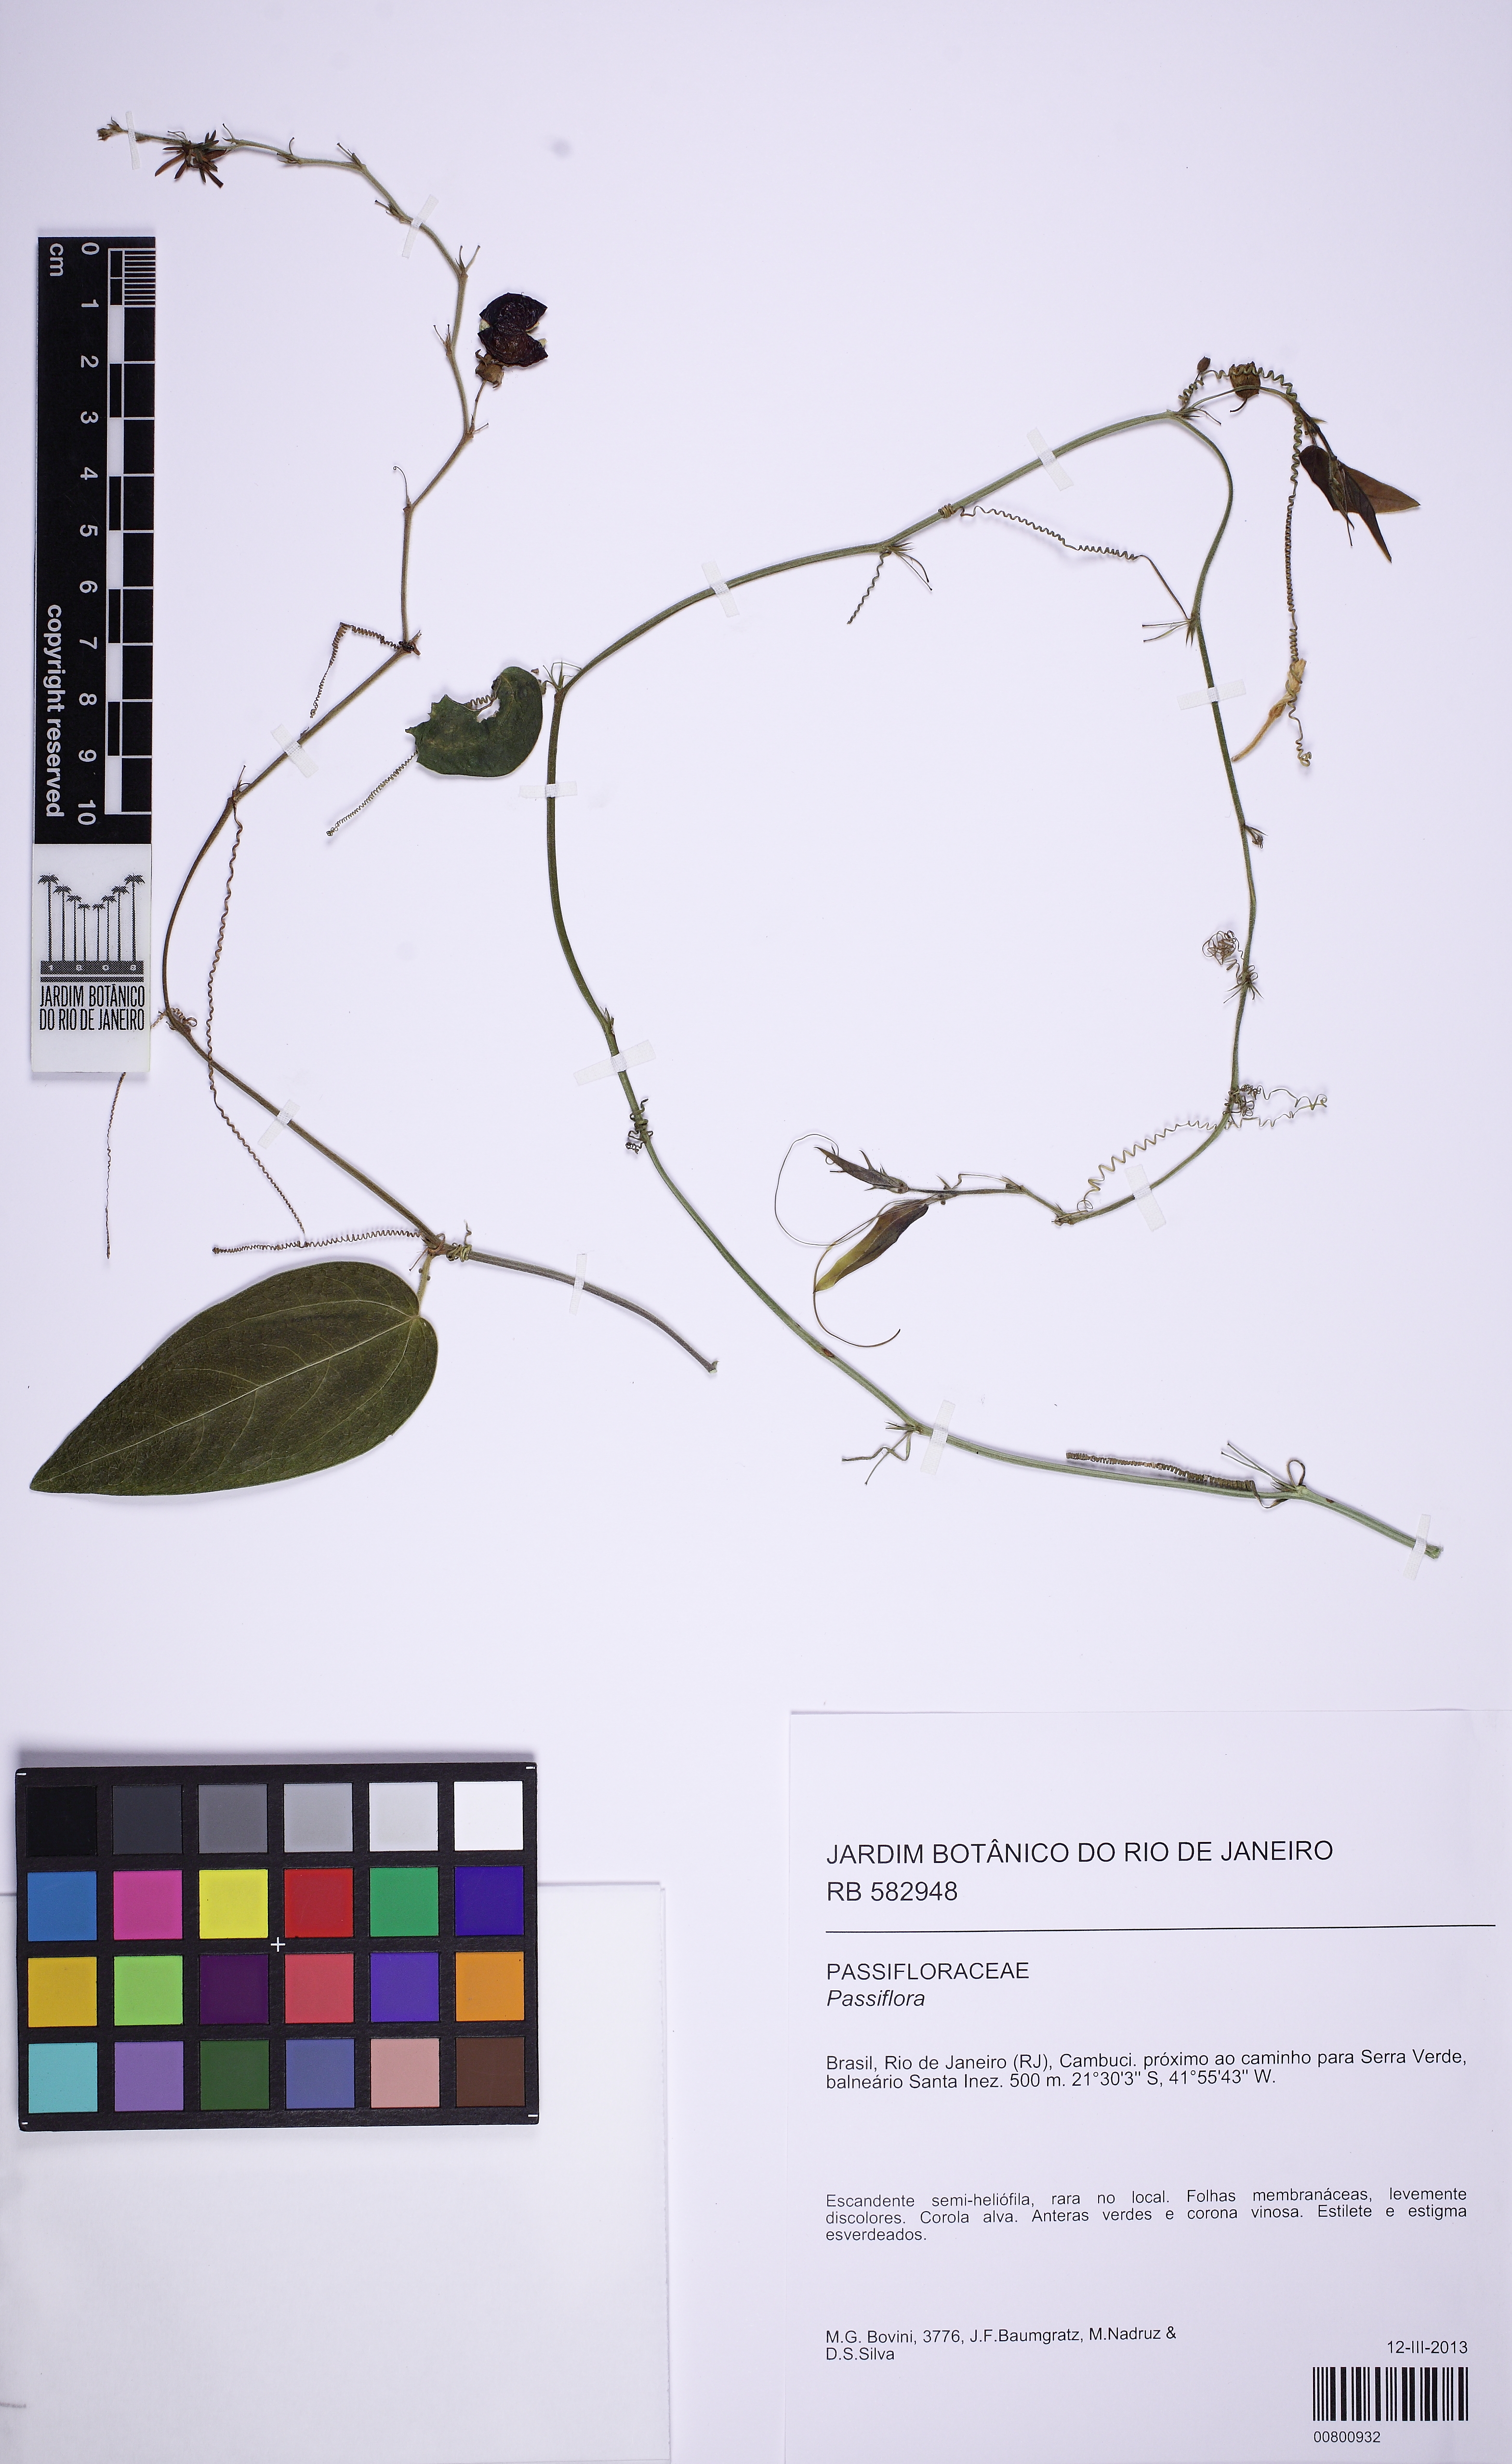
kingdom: Plantae
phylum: Tracheophyta
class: Magnoliopsida
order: Malpighiales
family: Passifloraceae
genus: Passiflora
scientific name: Passiflora
